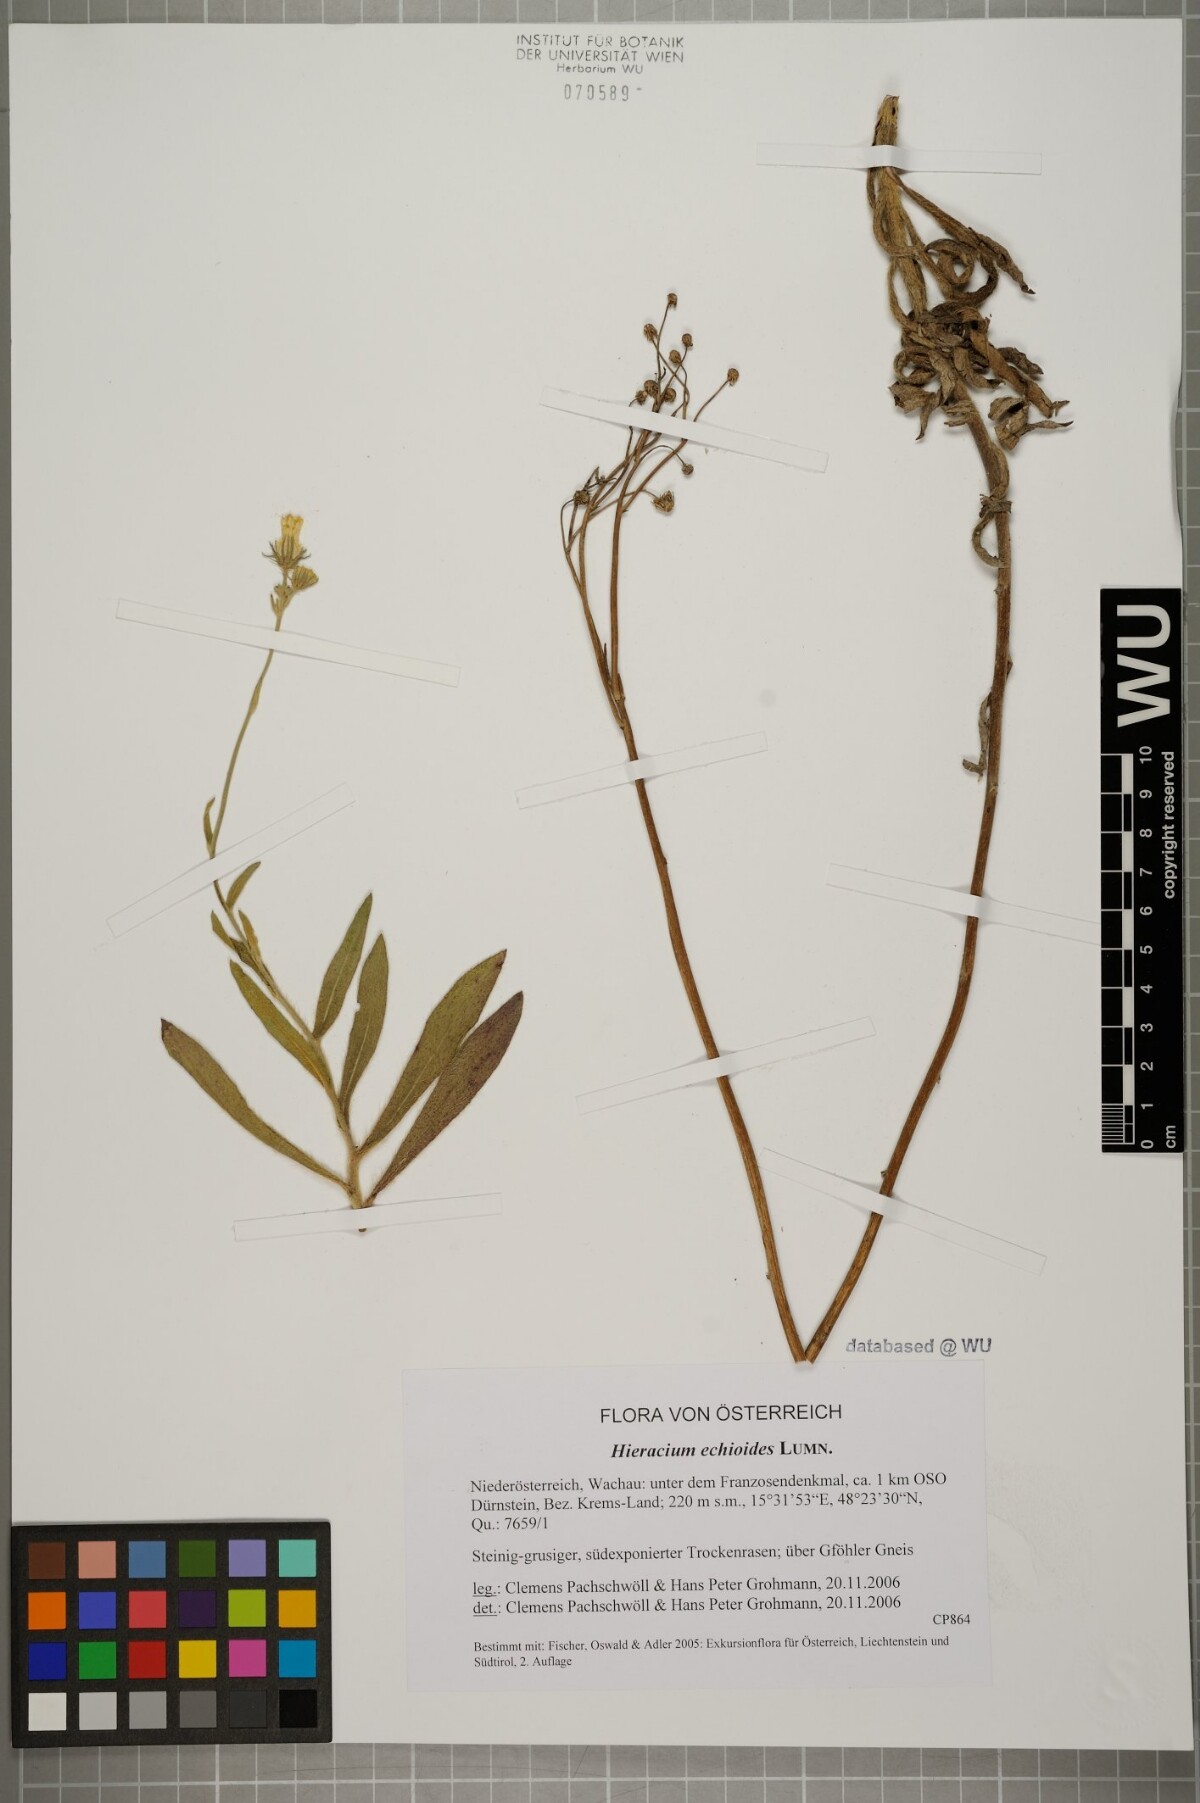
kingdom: Plantae
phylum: Tracheophyta
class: Magnoliopsida
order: Asterales
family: Asteraceae
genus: Pilosella
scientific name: Pilosella echioides
